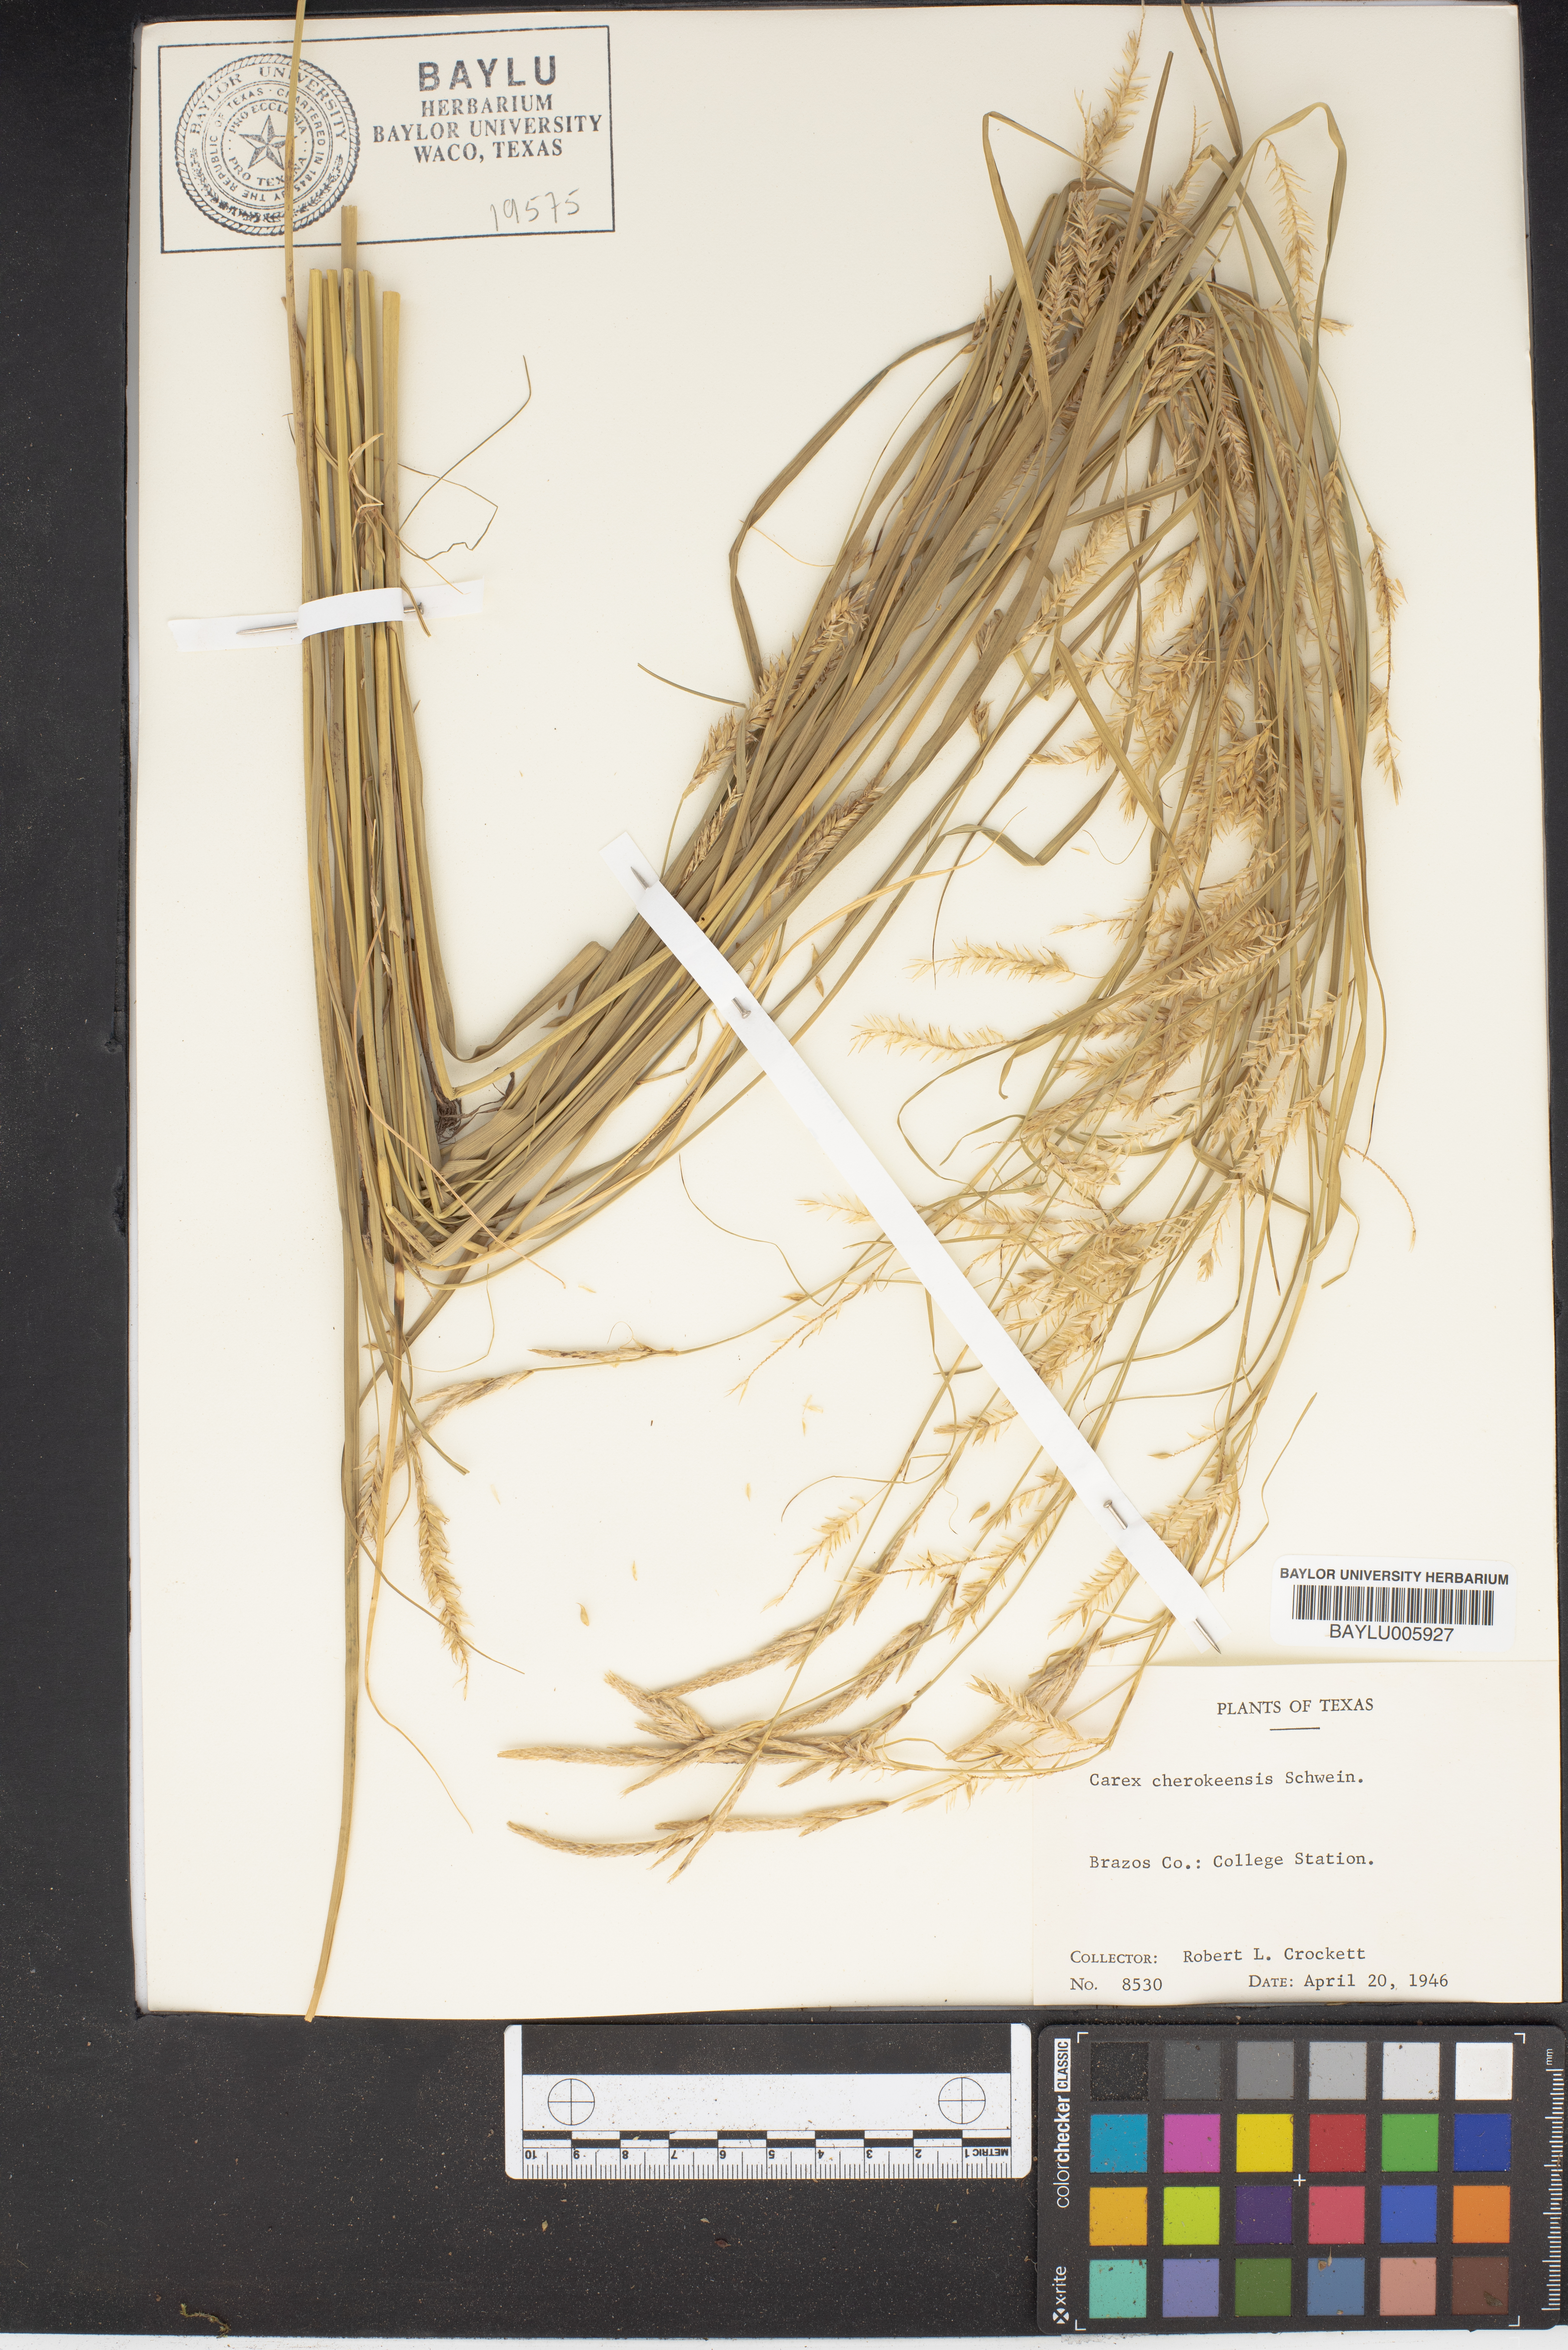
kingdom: Plantae
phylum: Tracheophyta
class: Liliopsida
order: Poales
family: Cyperaceae
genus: Carex
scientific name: Carex cherokeensis
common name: Cherokee sedge
